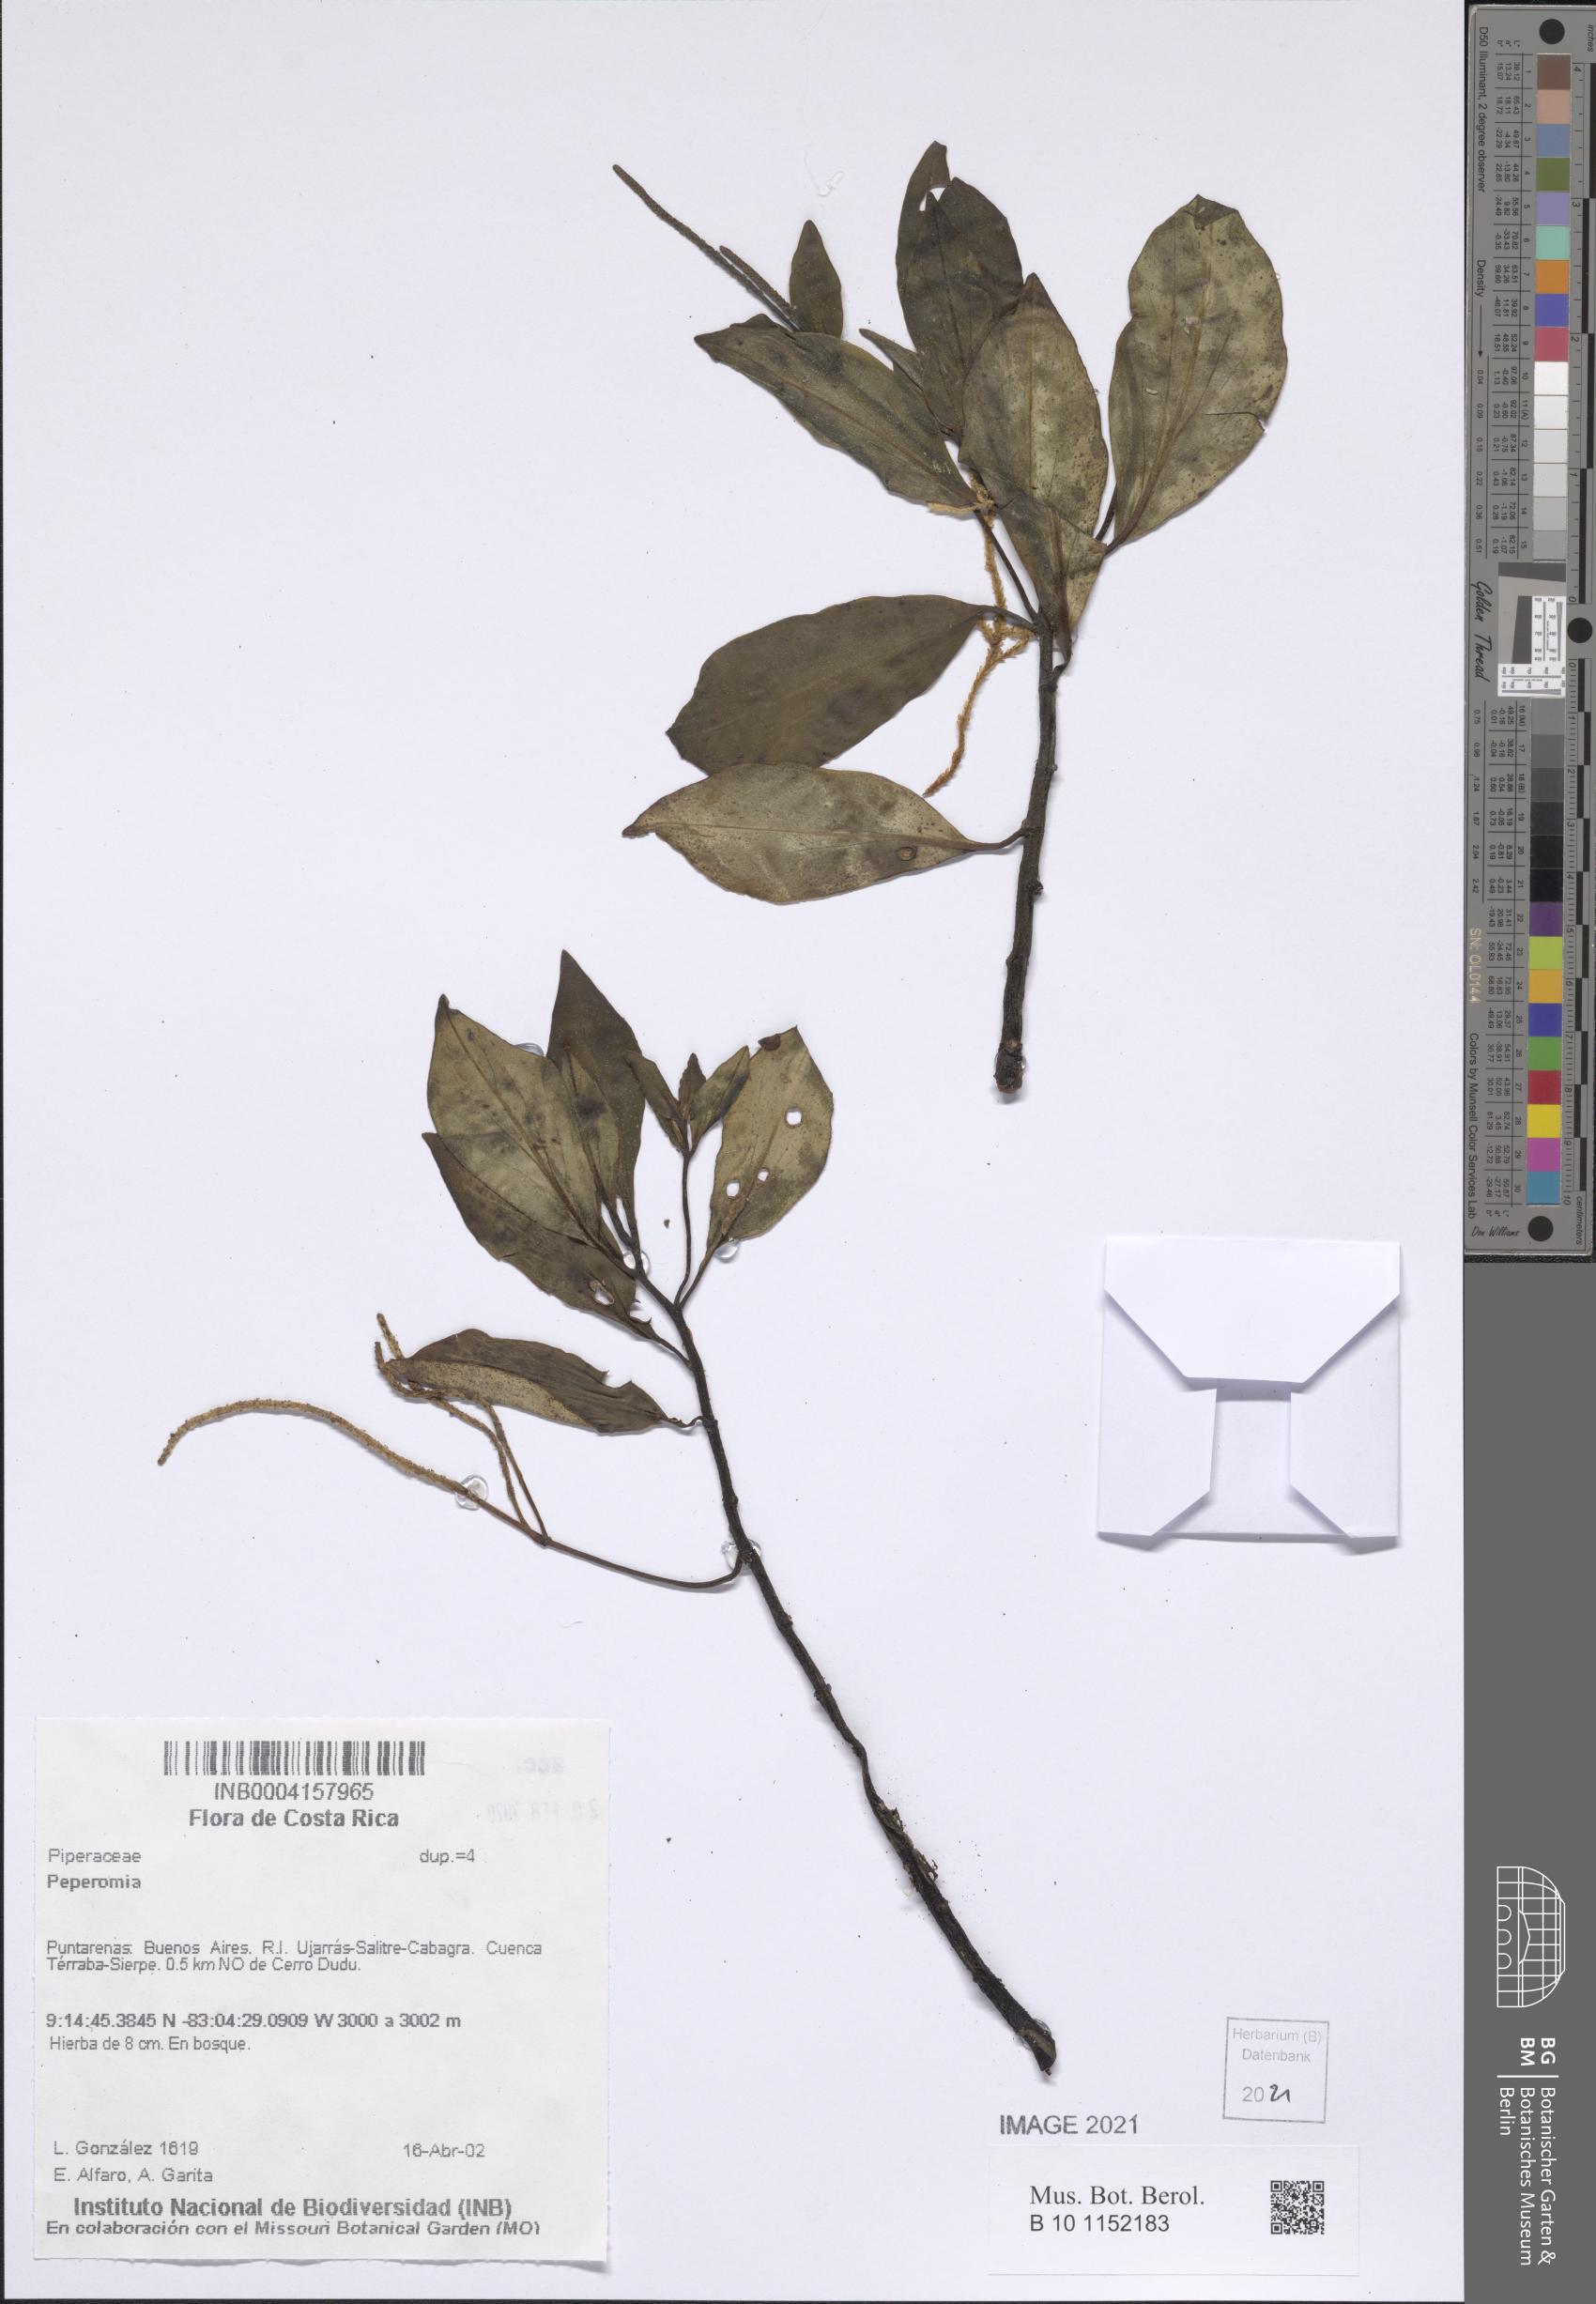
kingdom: Plantae
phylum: Tracheophyta
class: Magnoliopsida
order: Piperales
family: Piperaceae
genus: Peperomia
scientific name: Peperomia
